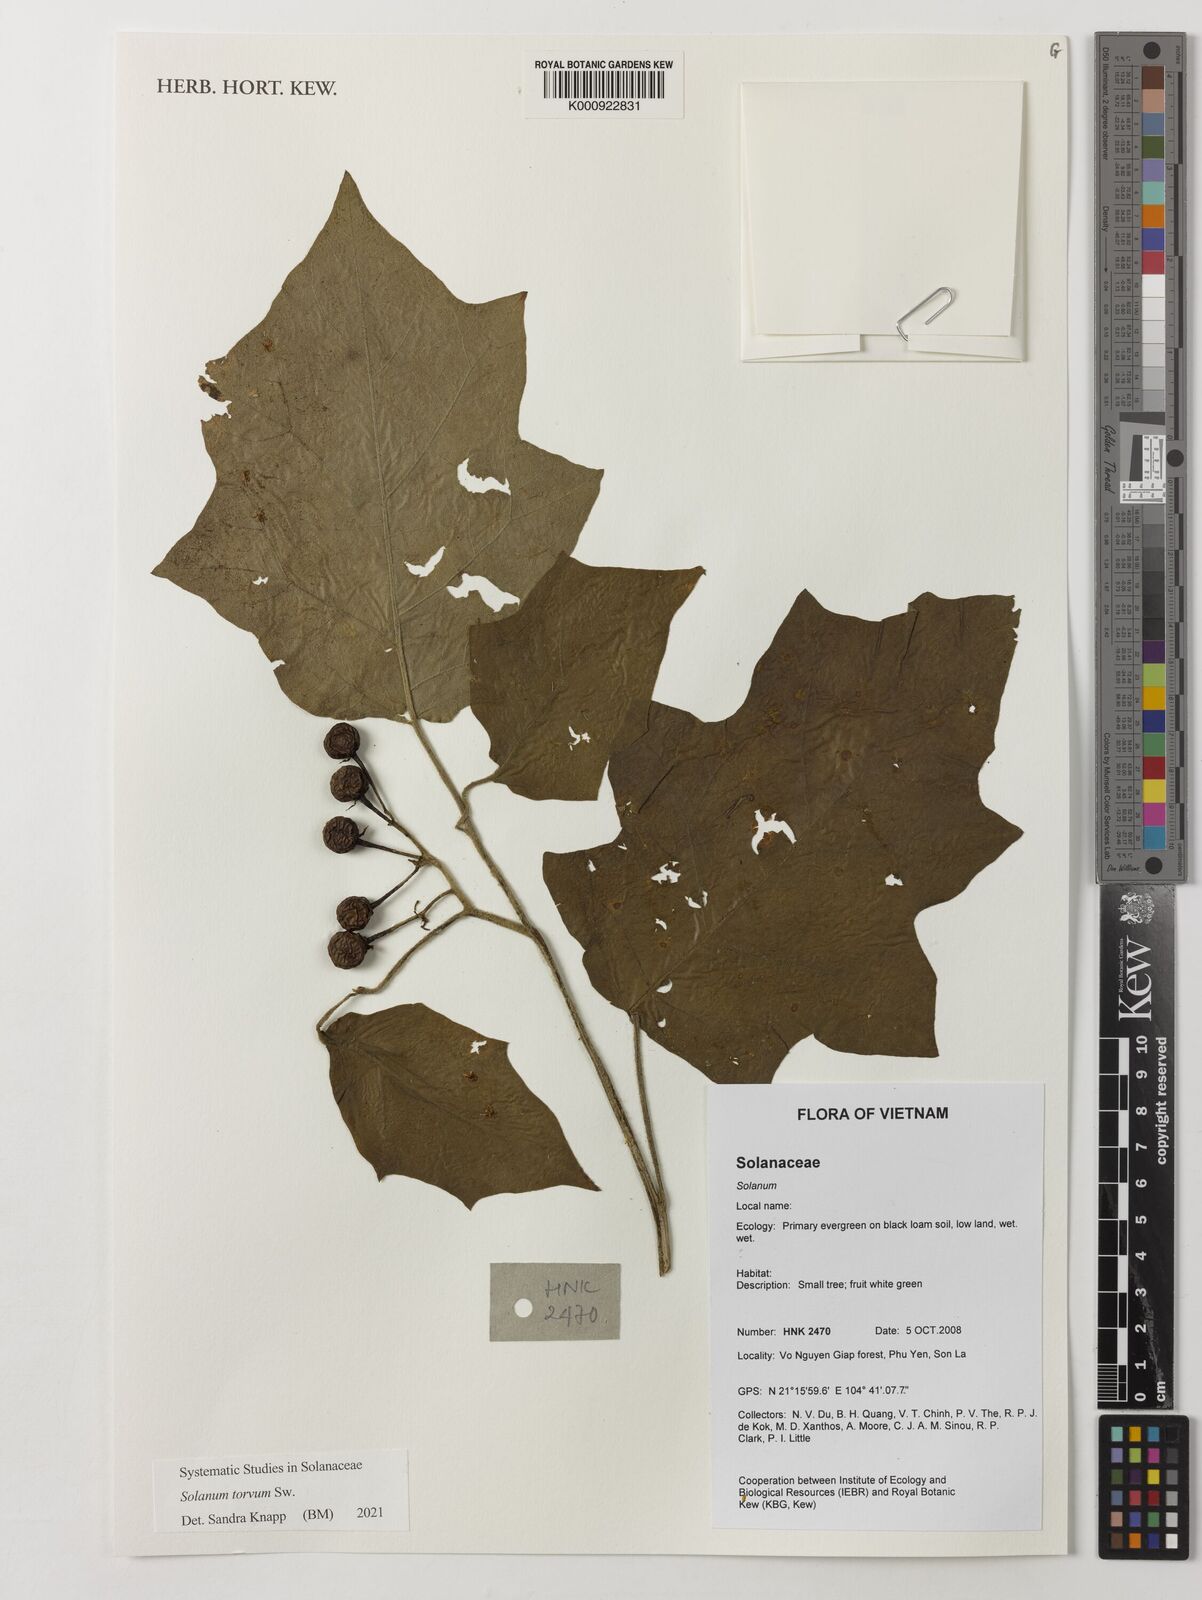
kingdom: Plantae
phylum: Tracheophyta
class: Magnoliopsida
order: Solanales
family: Solanaceae
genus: Solanum
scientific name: Solanum
